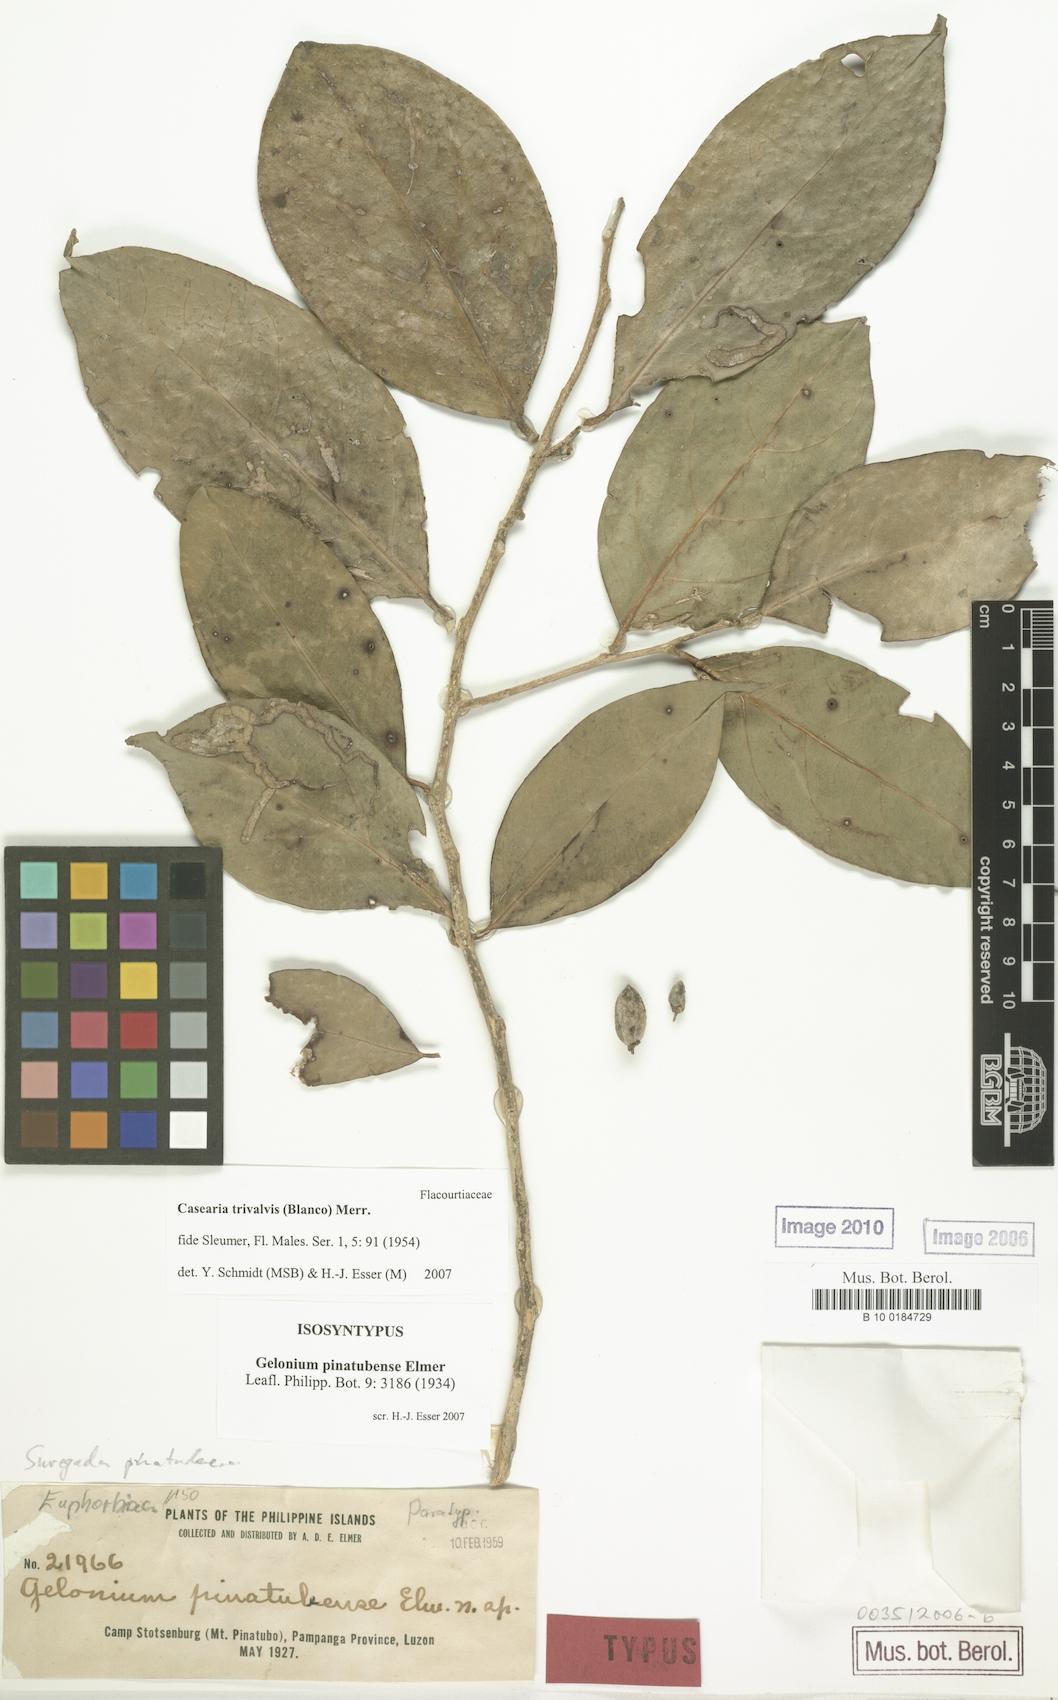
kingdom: Plantae
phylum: Tracheophyta
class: Magnoliopsida
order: Malpighiales
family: Salicaceae
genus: Casearia
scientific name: Casearia trivalvis
